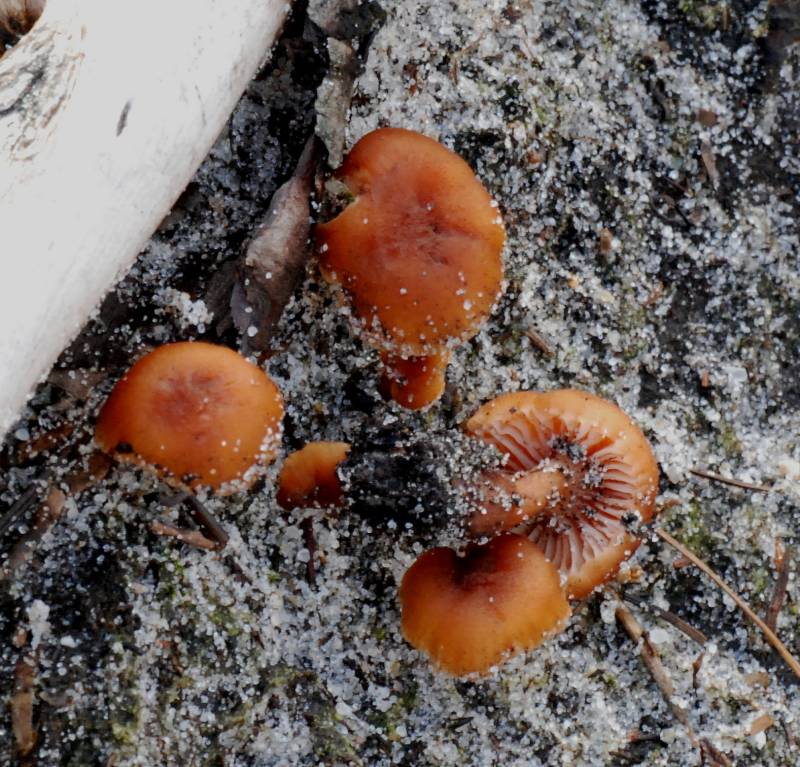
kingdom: Fungi
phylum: Basidiomycota
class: Agaricomycetes
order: Agaricales
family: Hydnangiaceae
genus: Laccaria
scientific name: Laccaria laccata
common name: rød ametysthat
